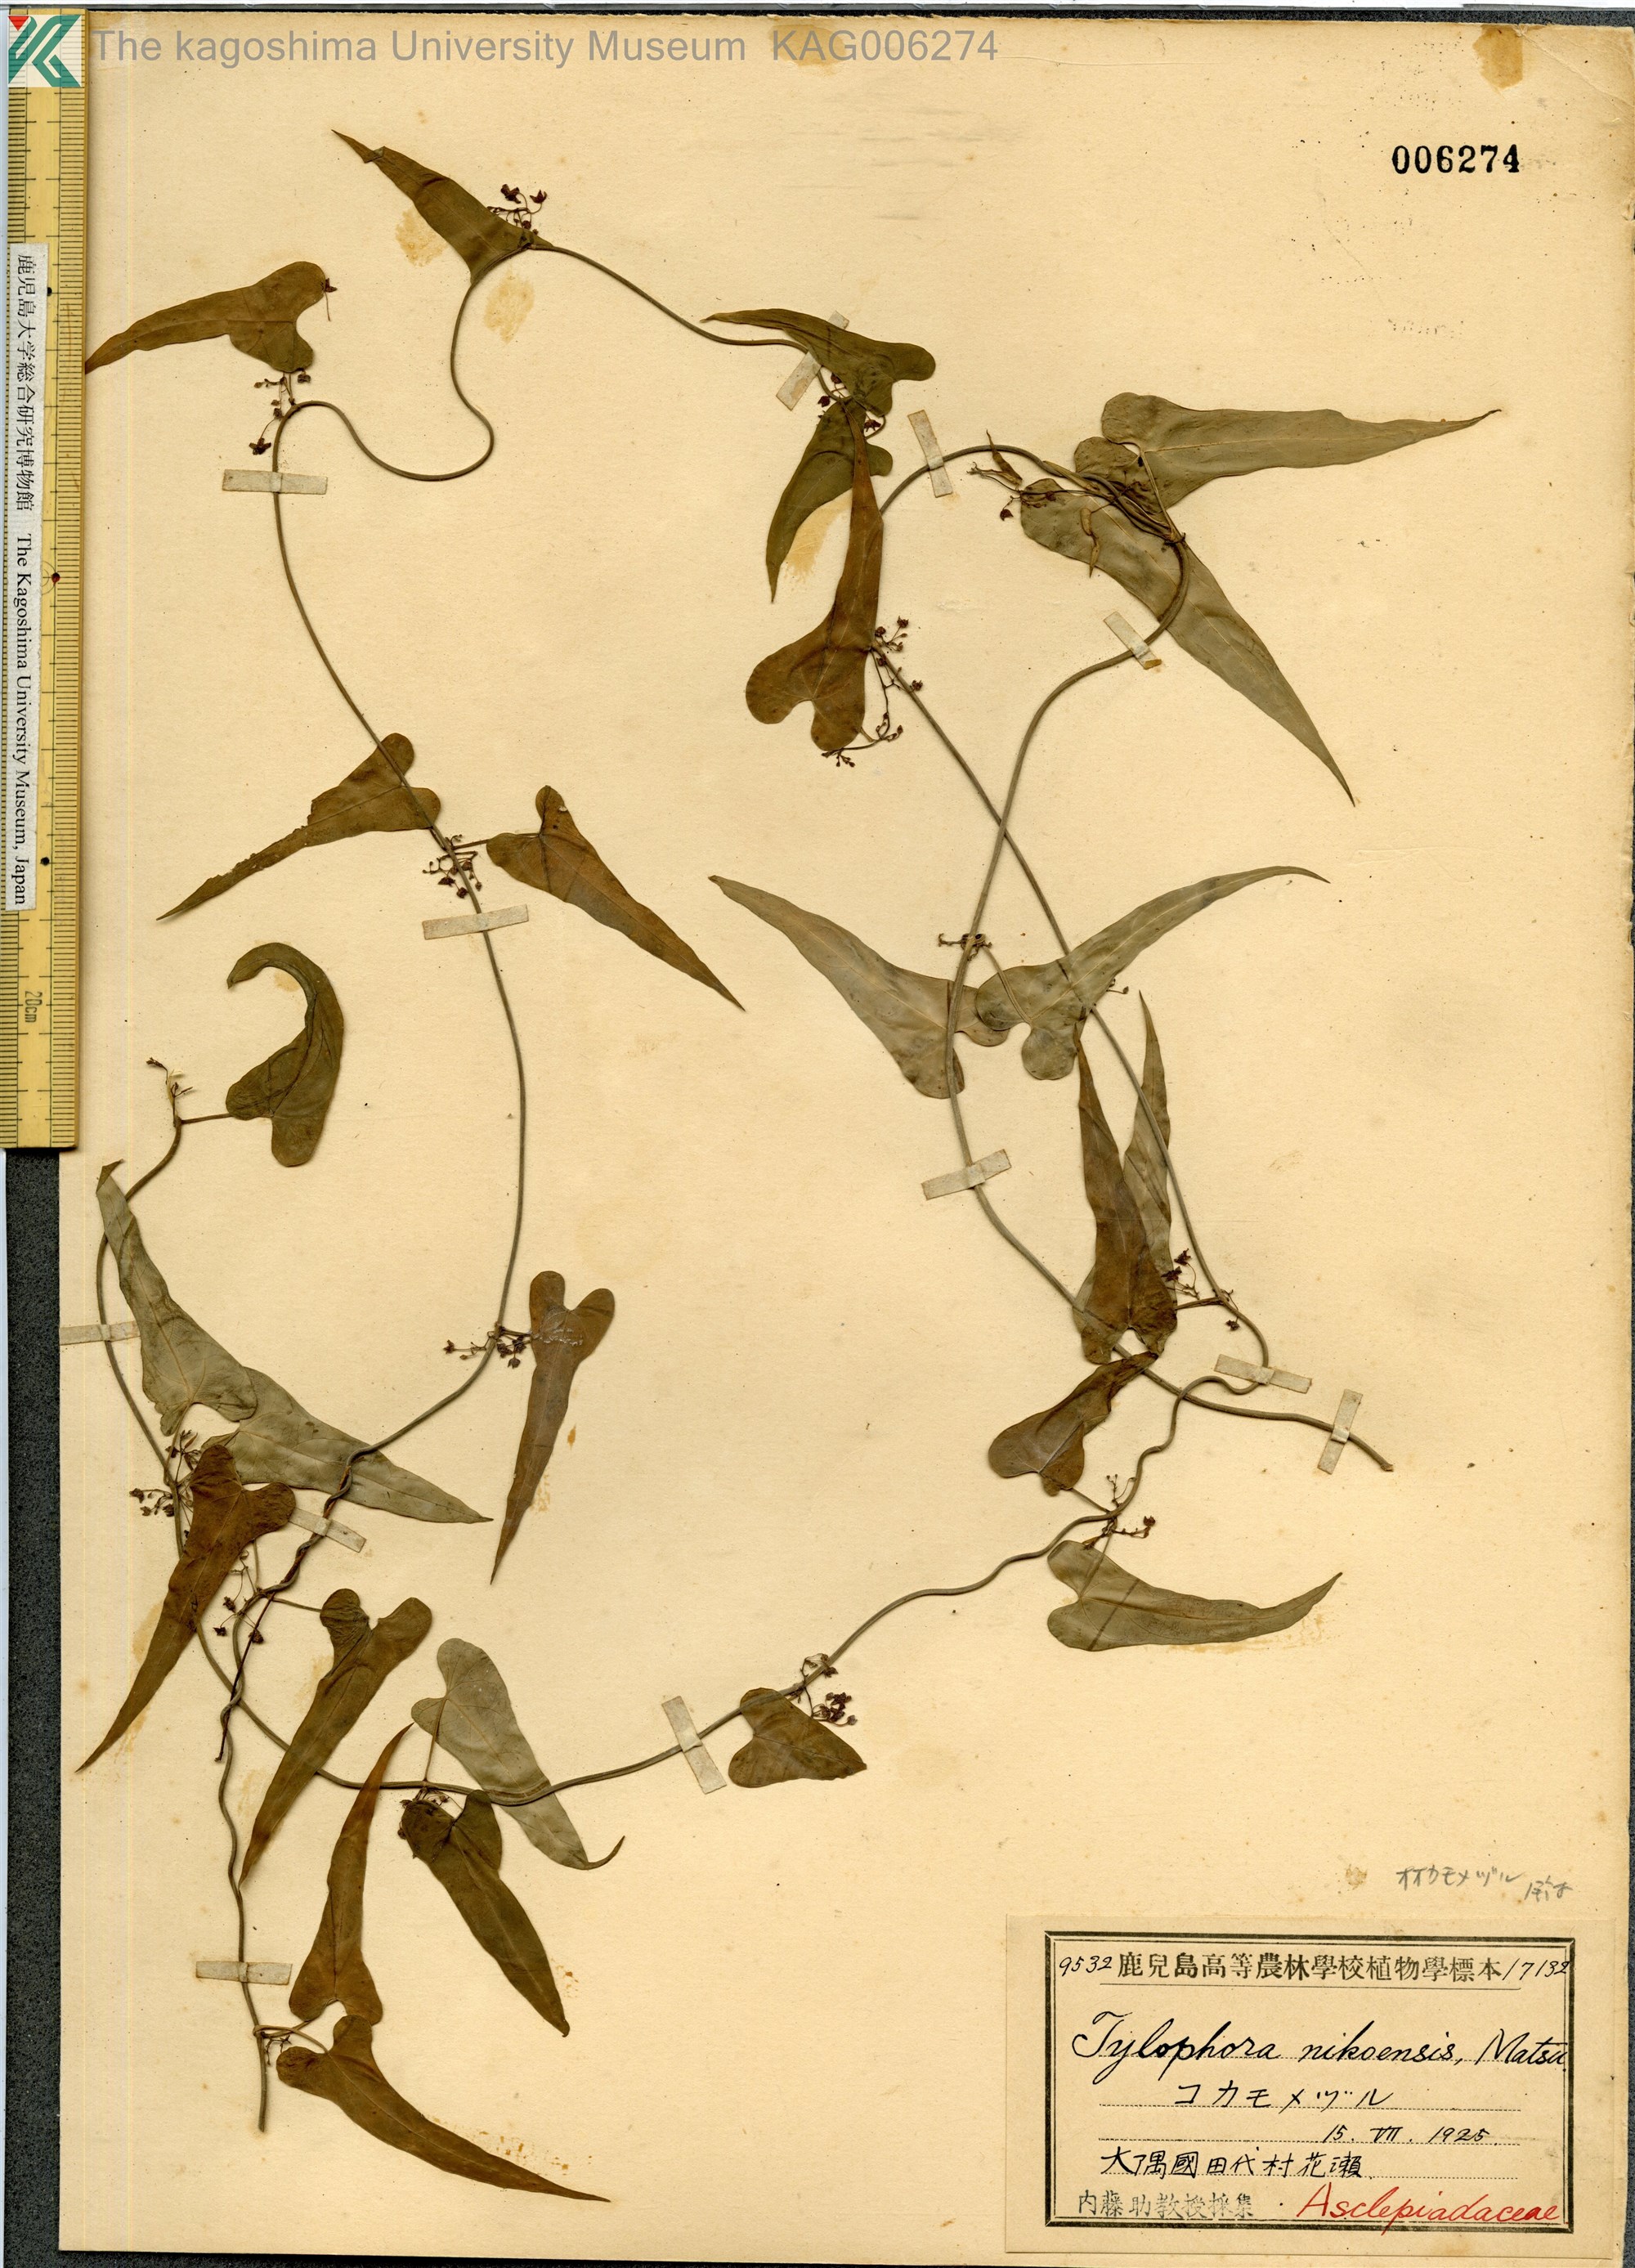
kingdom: Plantae
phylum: Tracheophyta
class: Magnoliopsida
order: Gentianales
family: Apocynaceae
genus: Vincetoxicum
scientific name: Vincetoxicum aristolochioides
